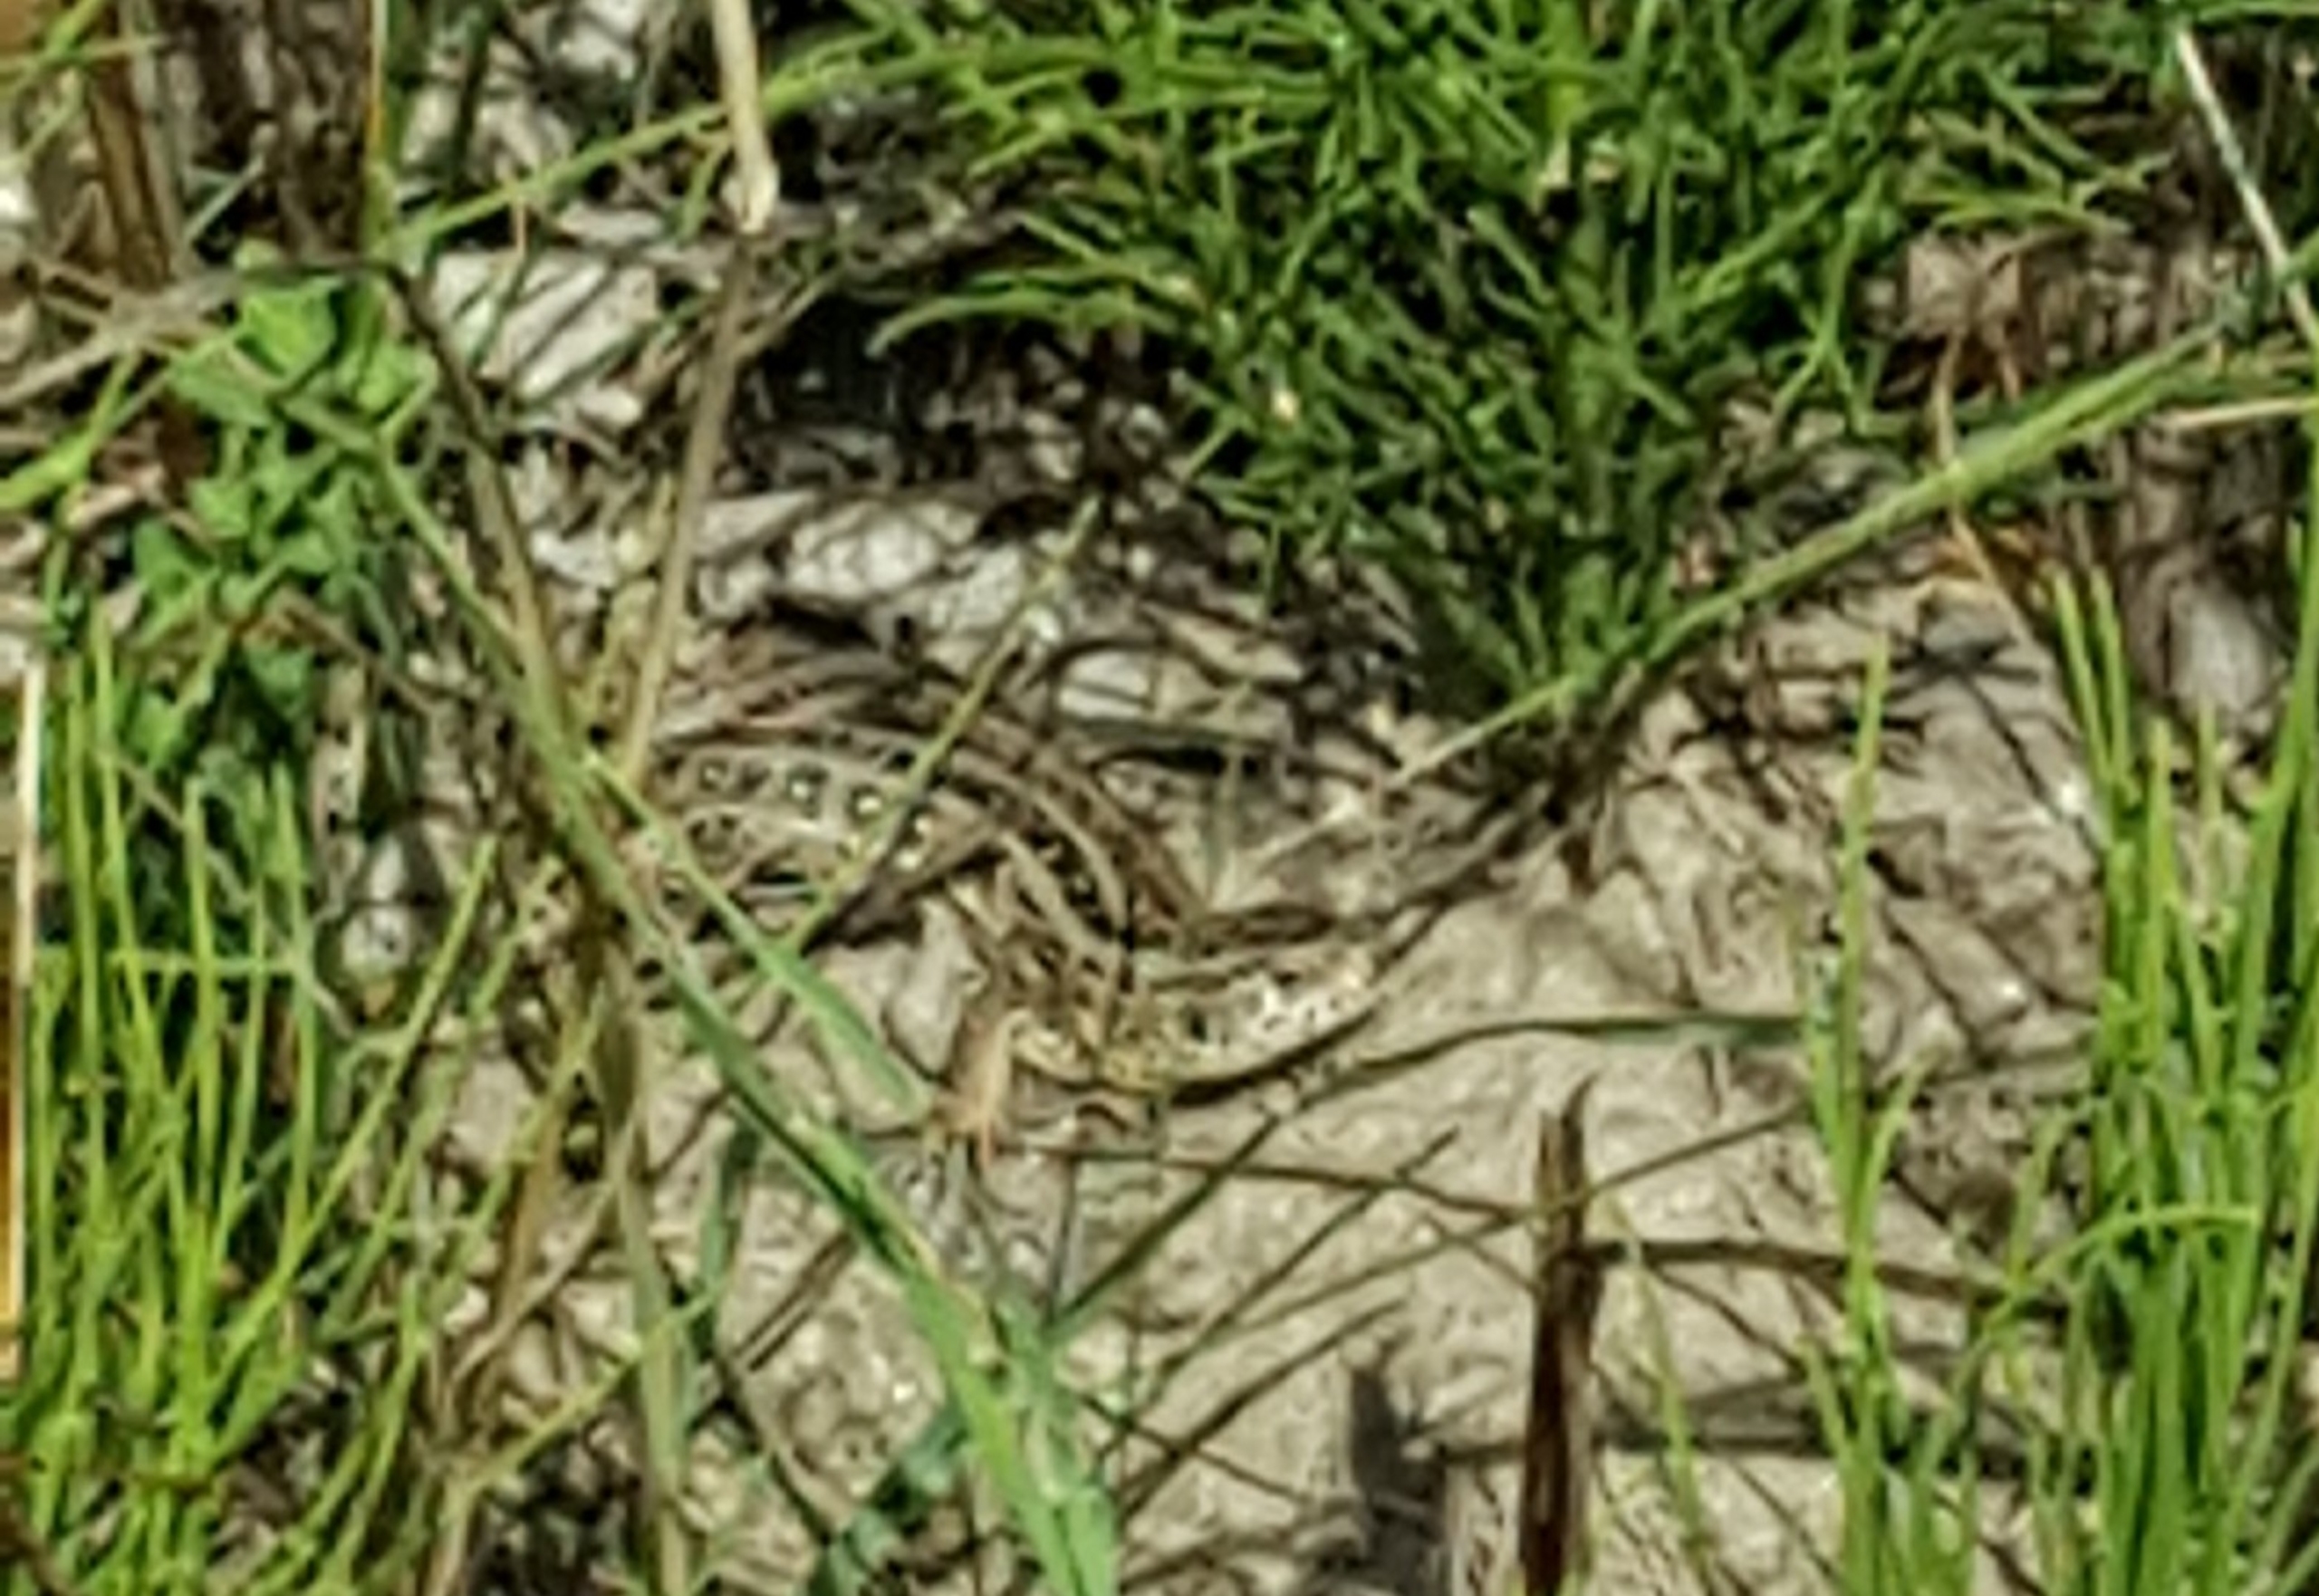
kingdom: Animalia
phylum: Chordata
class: Squamata
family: Lacertidae
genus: Lacerta
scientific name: Lacerta agilis
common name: Markfirben
